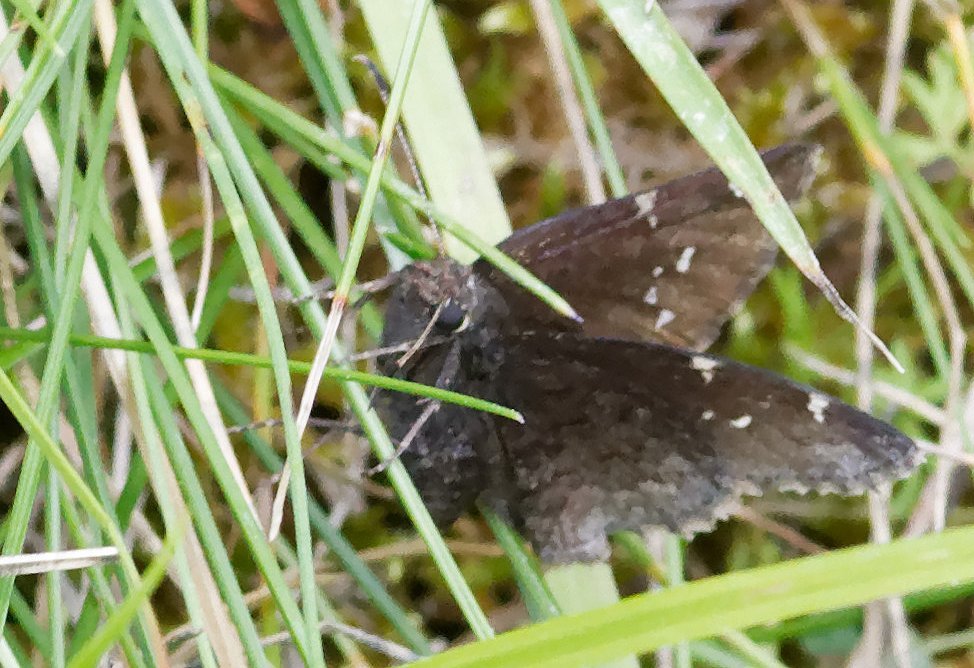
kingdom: Animalia
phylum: Arthropoda
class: Insecta
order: Lepidoptera
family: Hesperiidae
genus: Autochton
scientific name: Autochton
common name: Northern Cloudywing
